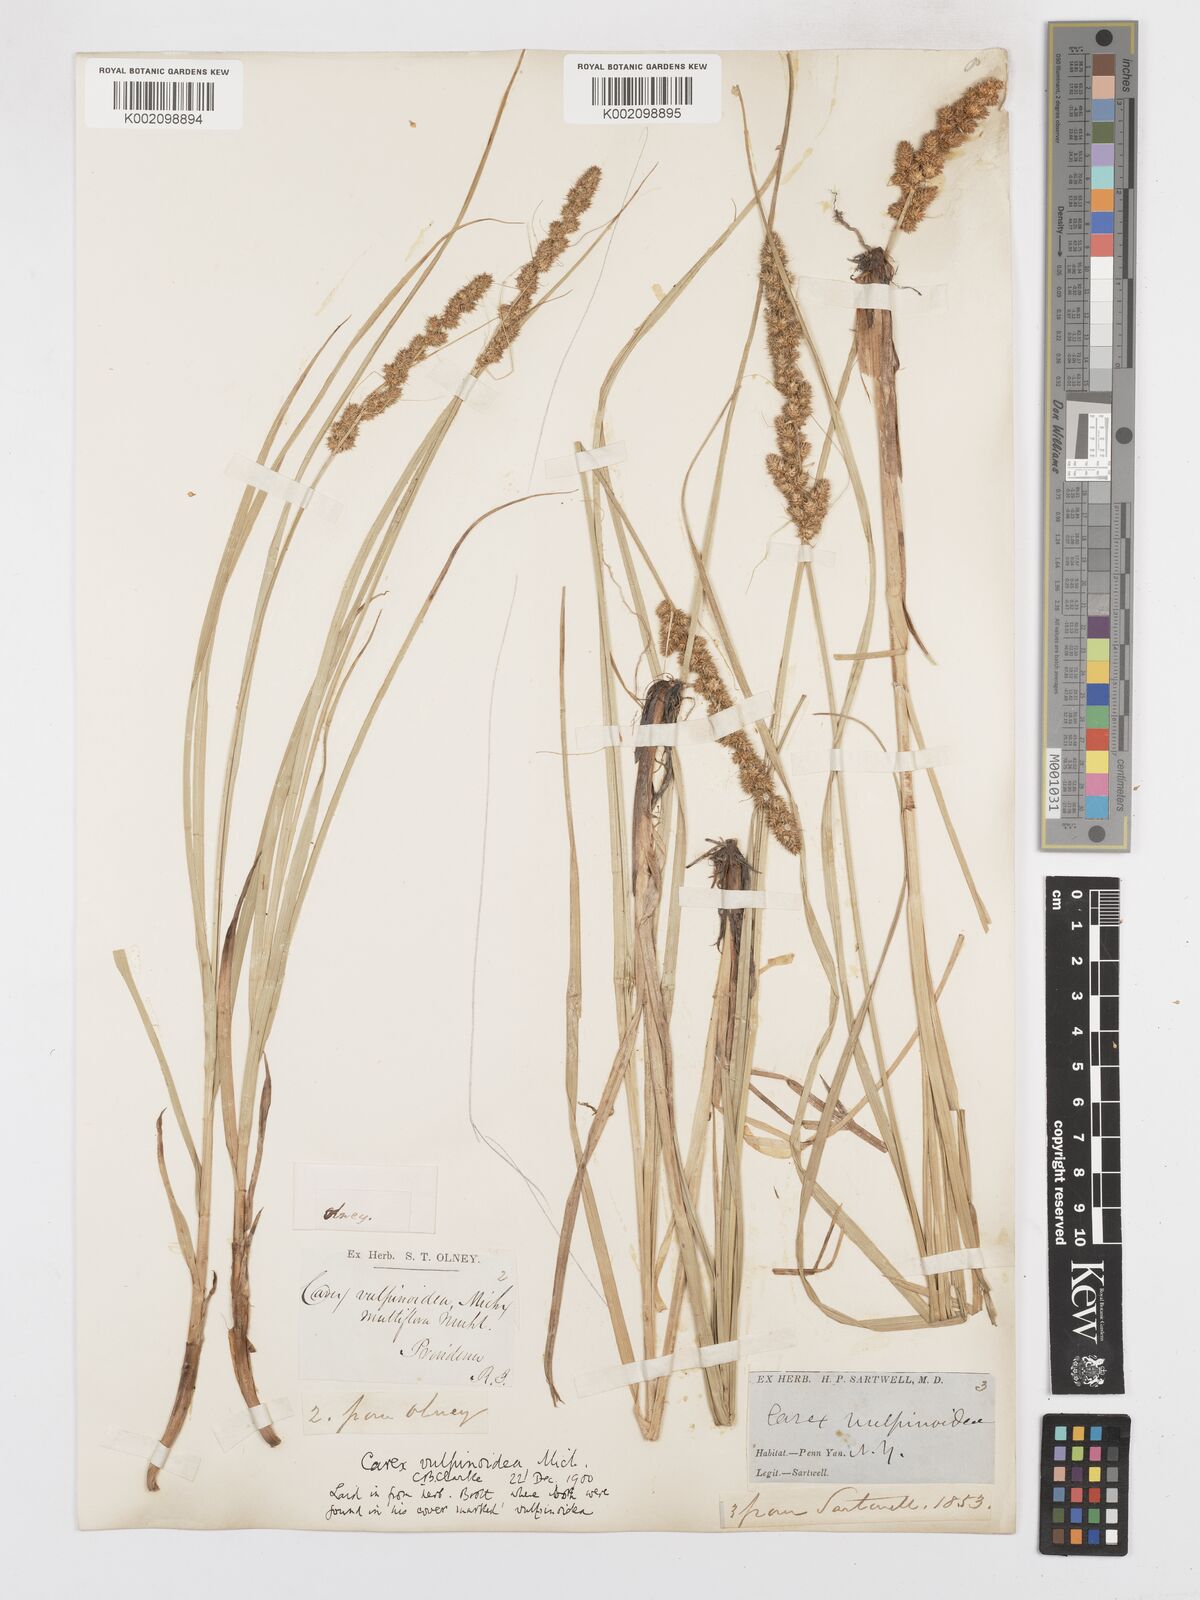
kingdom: Plantae
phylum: Tracheophyta
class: Liliopsida
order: Poales
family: Cyperaceae
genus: Carex
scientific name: Carex vulpinoidea
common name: American fox-sedge
